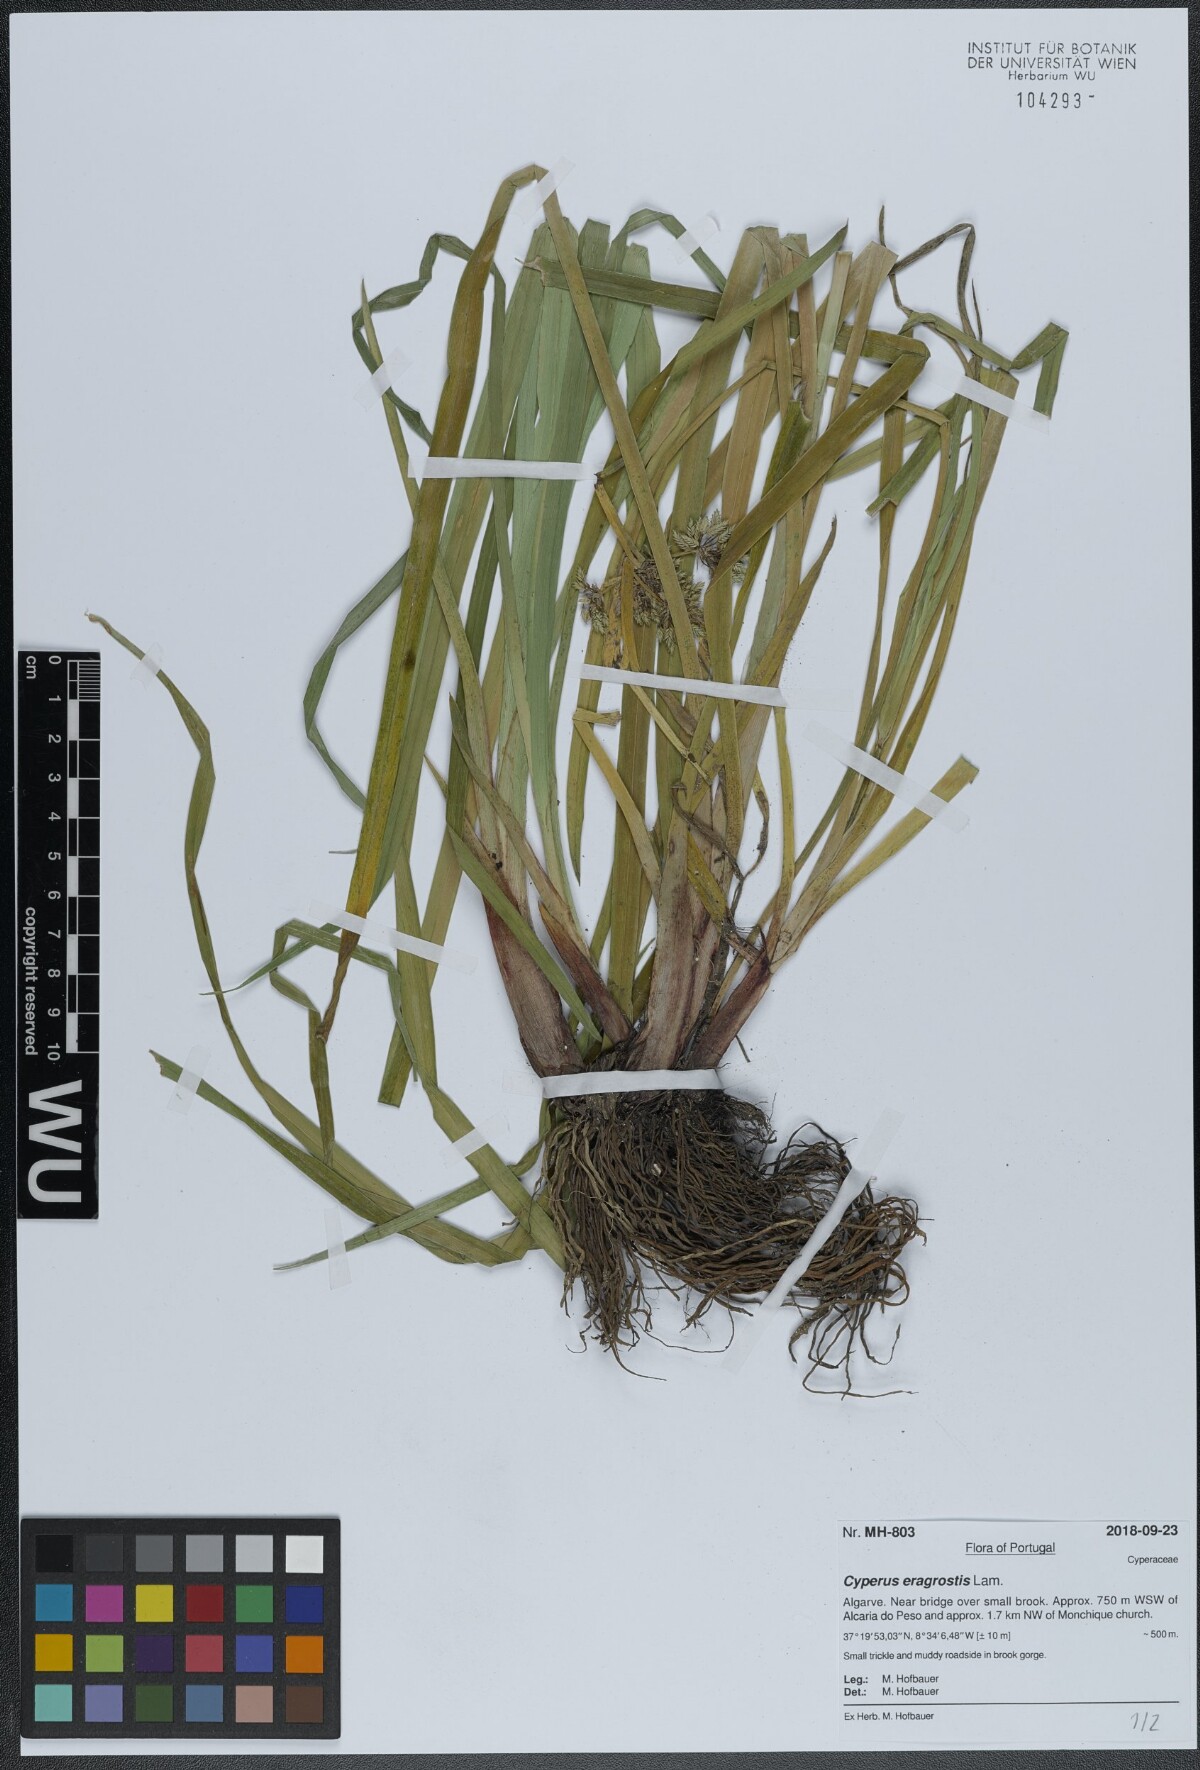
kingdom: Plantae
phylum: Tracheophyta
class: Liliopsida
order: Poales
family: Cyperaceae
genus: Cyperus
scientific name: Cyperus eragrostis
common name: Tall flatsedge
